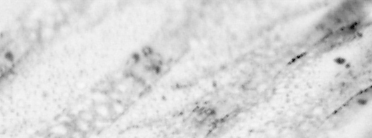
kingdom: Animalia
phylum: Chordata
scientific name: Chordata
